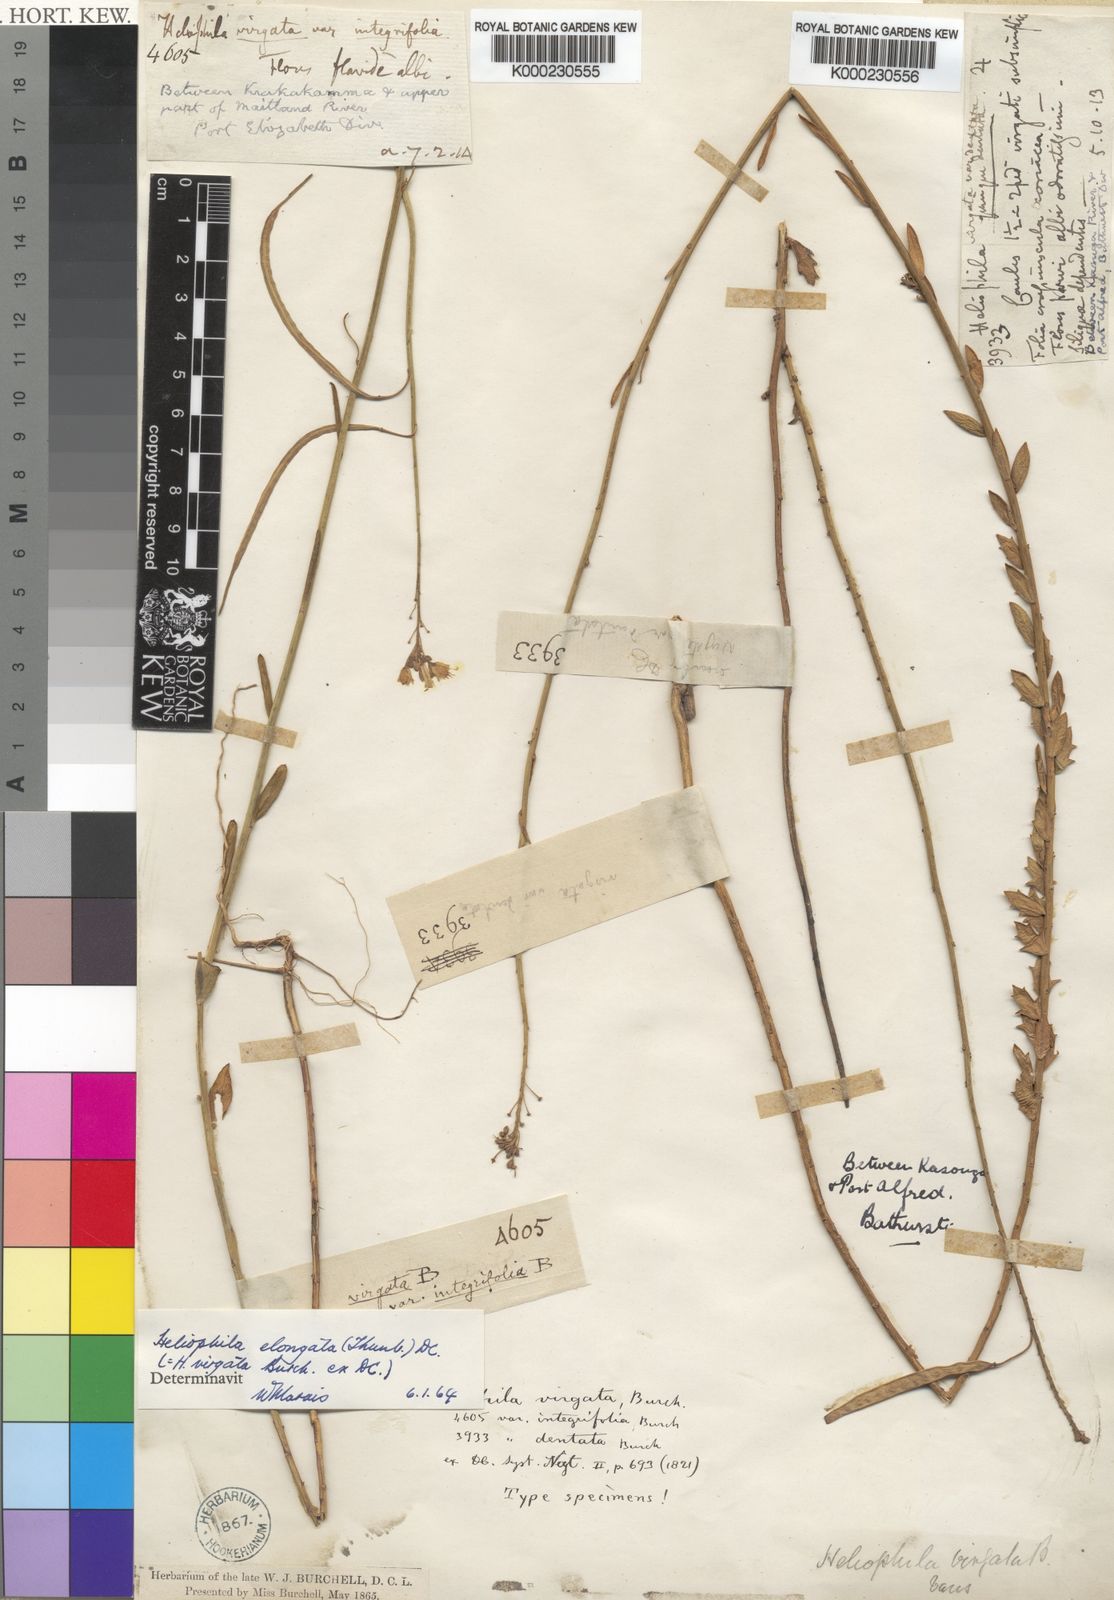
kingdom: Plantae
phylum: Tracheophyta
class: Magnoliopsida
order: Brassicales
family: Brassicaceae
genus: Heliophila
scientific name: Heliophila elongata
